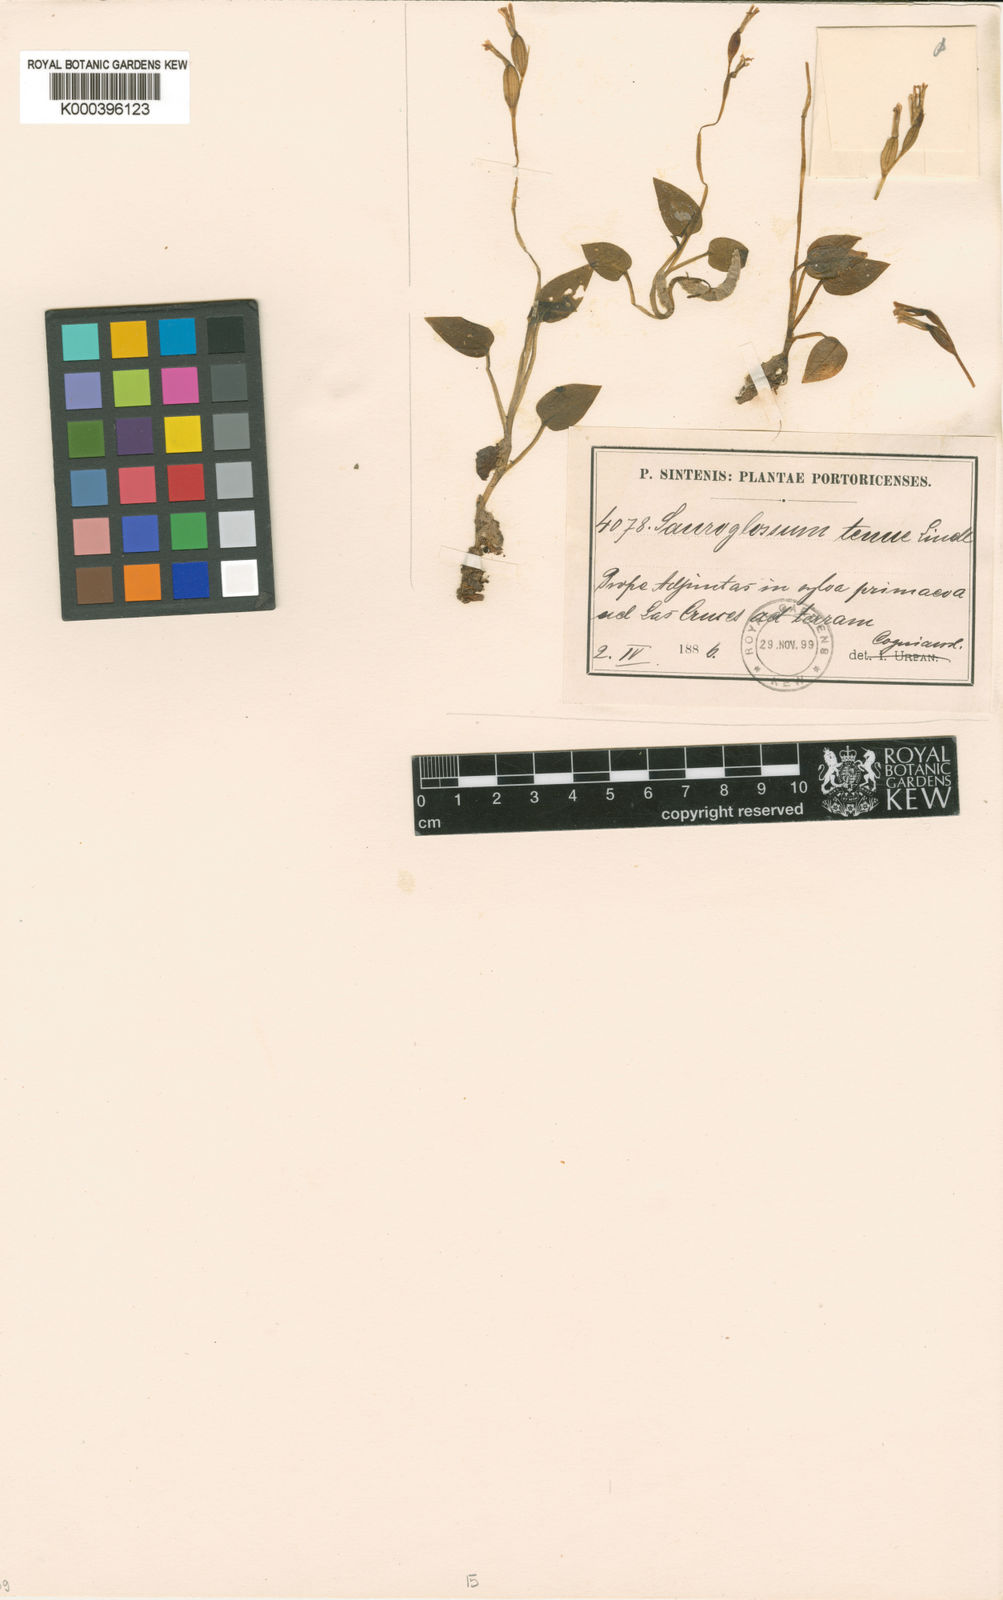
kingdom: Plantae
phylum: Tracheophyta
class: Liliopsida
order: Asparagales
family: Orchidaceae
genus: Hapalorchis
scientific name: Hapalorchis lineata
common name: Tropical ladies'-tresses
